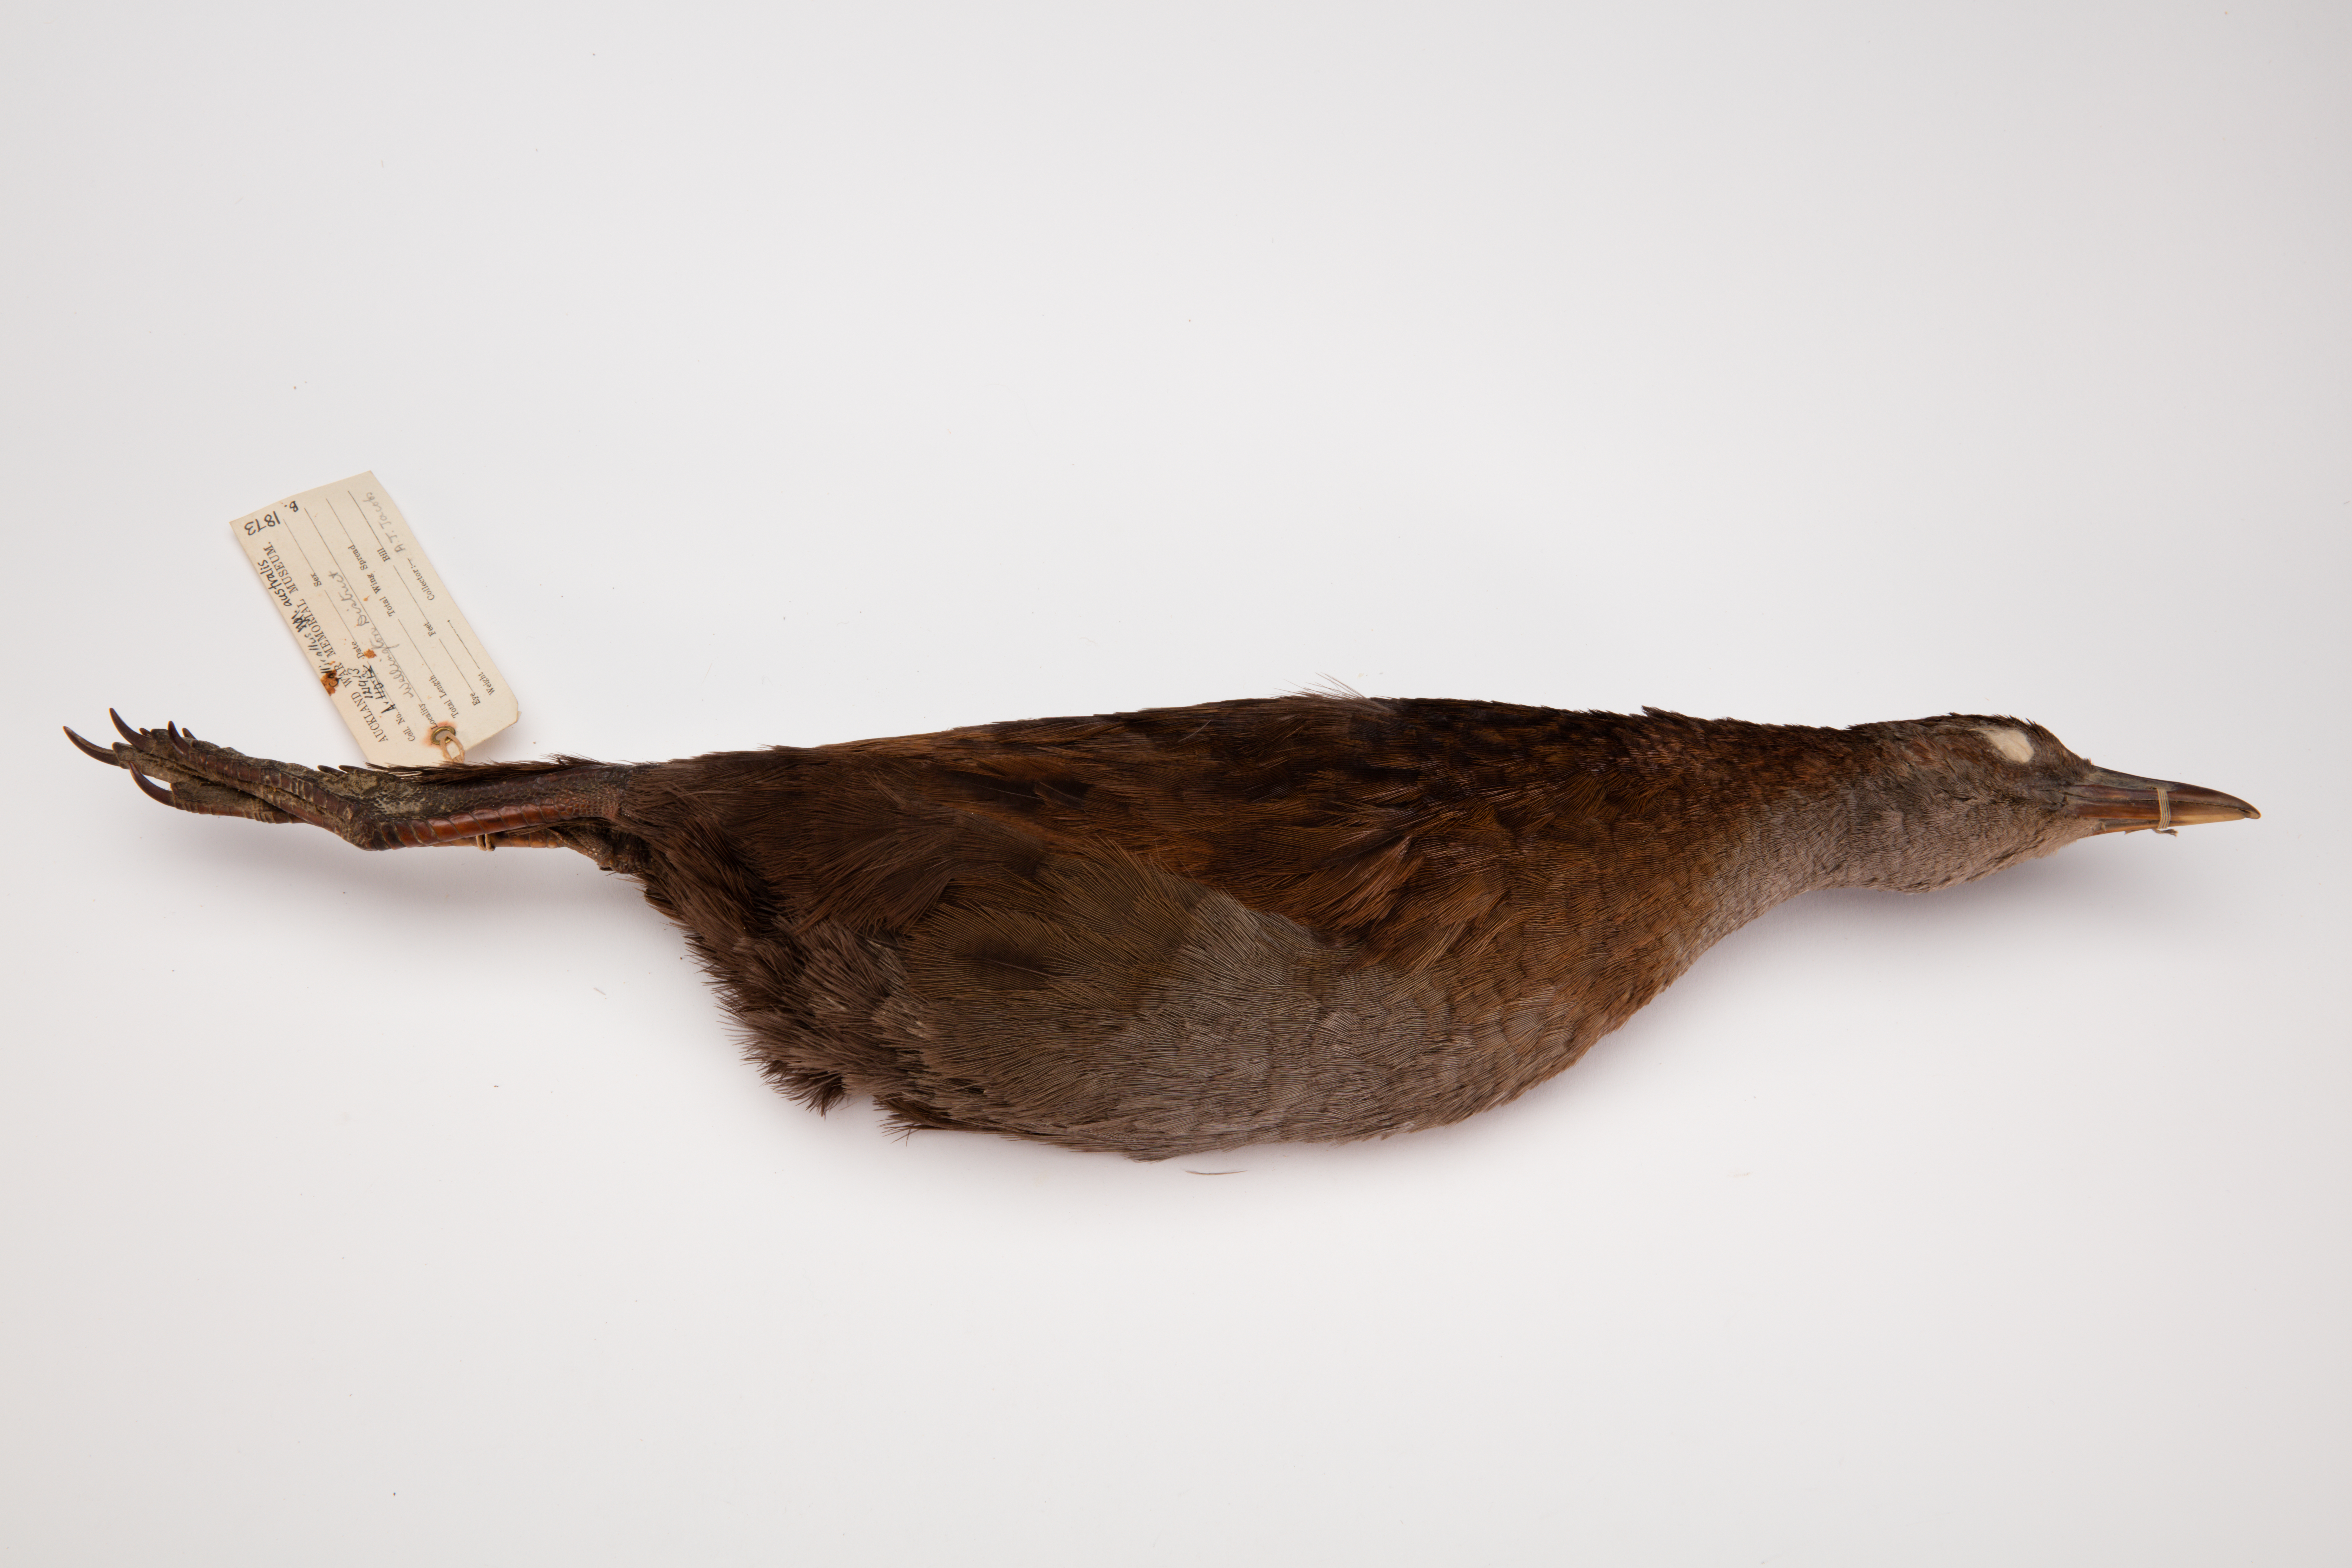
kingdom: Animalia
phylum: Chordata
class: Aves
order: Gruiformes
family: Rallidae
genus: Gallirallus
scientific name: Gallirallus australis
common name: Weka
